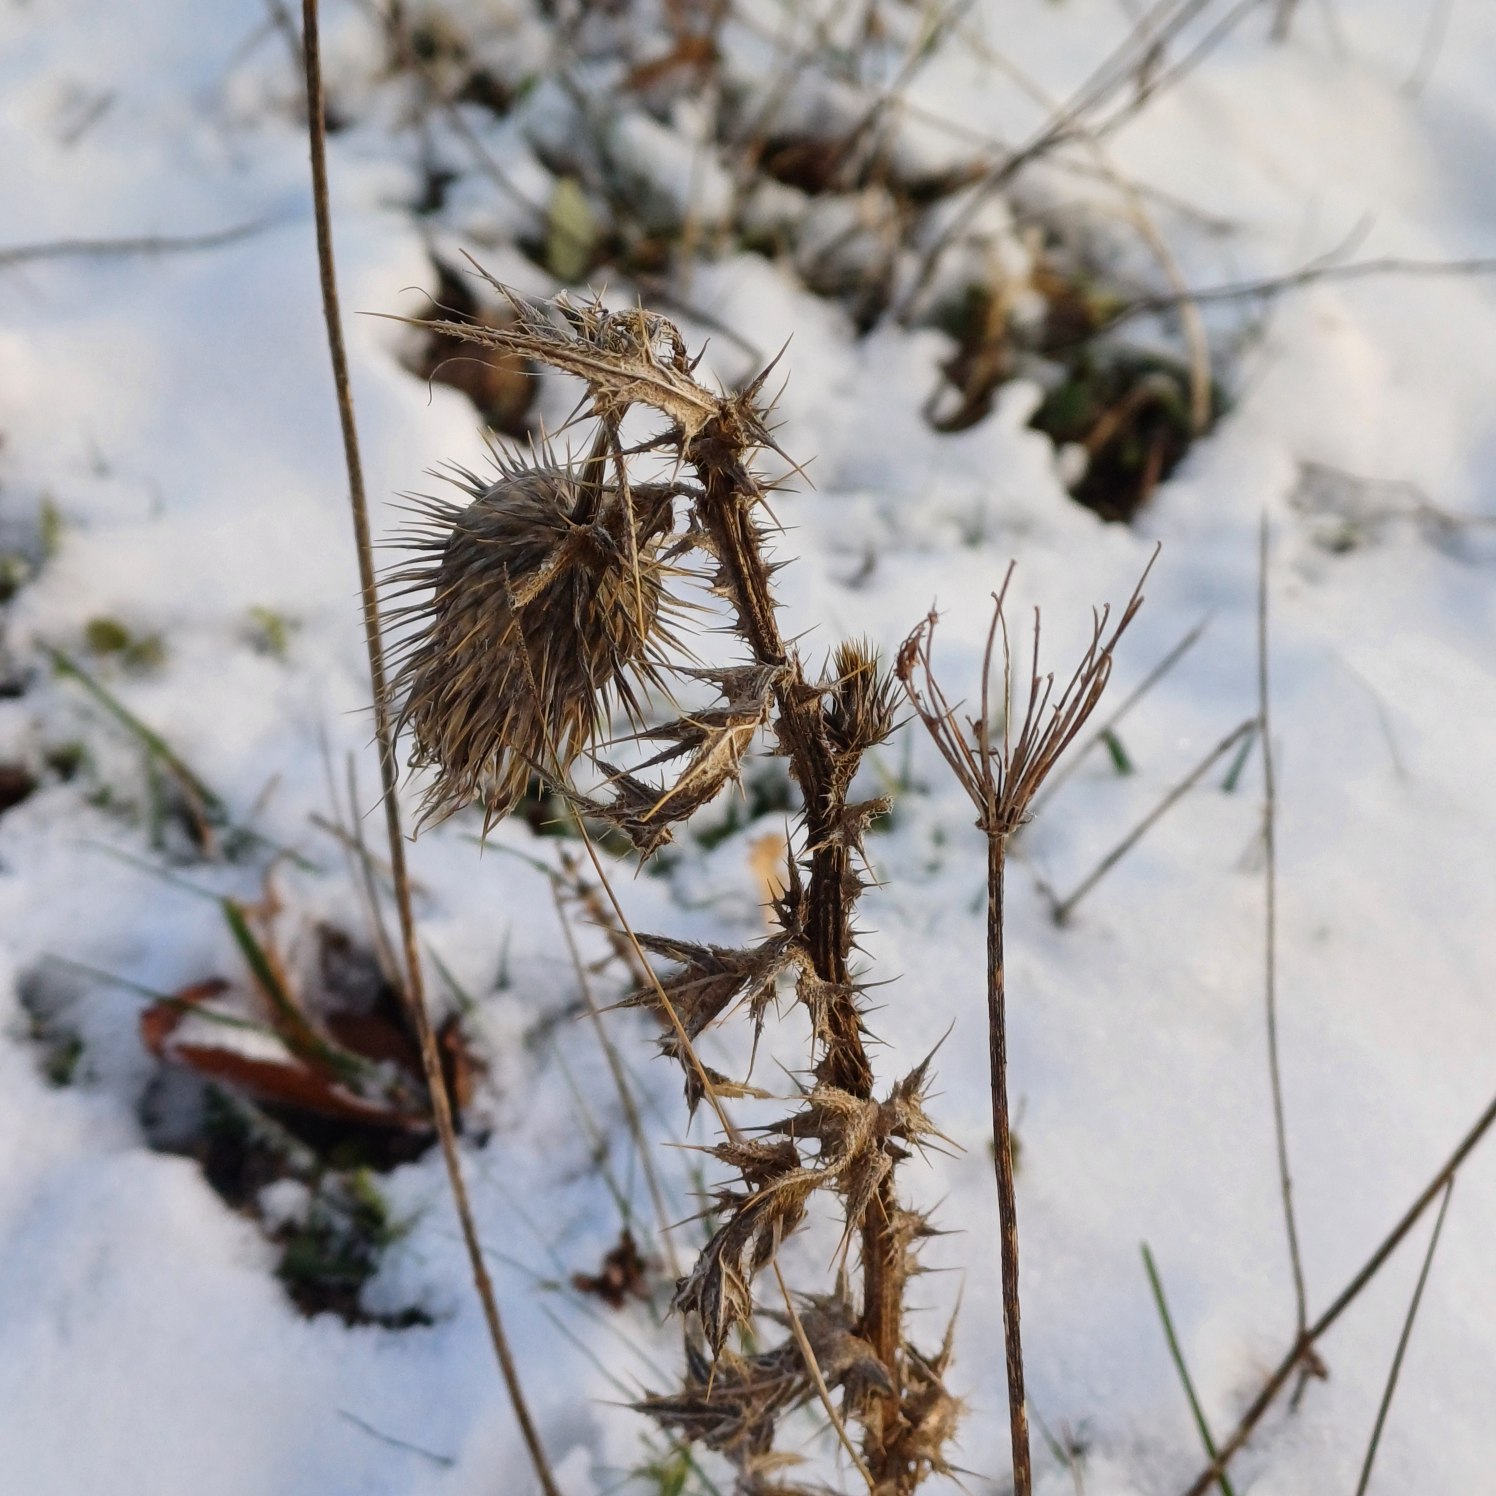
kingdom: Plantae
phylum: Tracheophyta
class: Magnoliopsida
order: Asterales
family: Asteraceae
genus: Cirsium
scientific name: Cirsium vulgare
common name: Horse-tidsel
